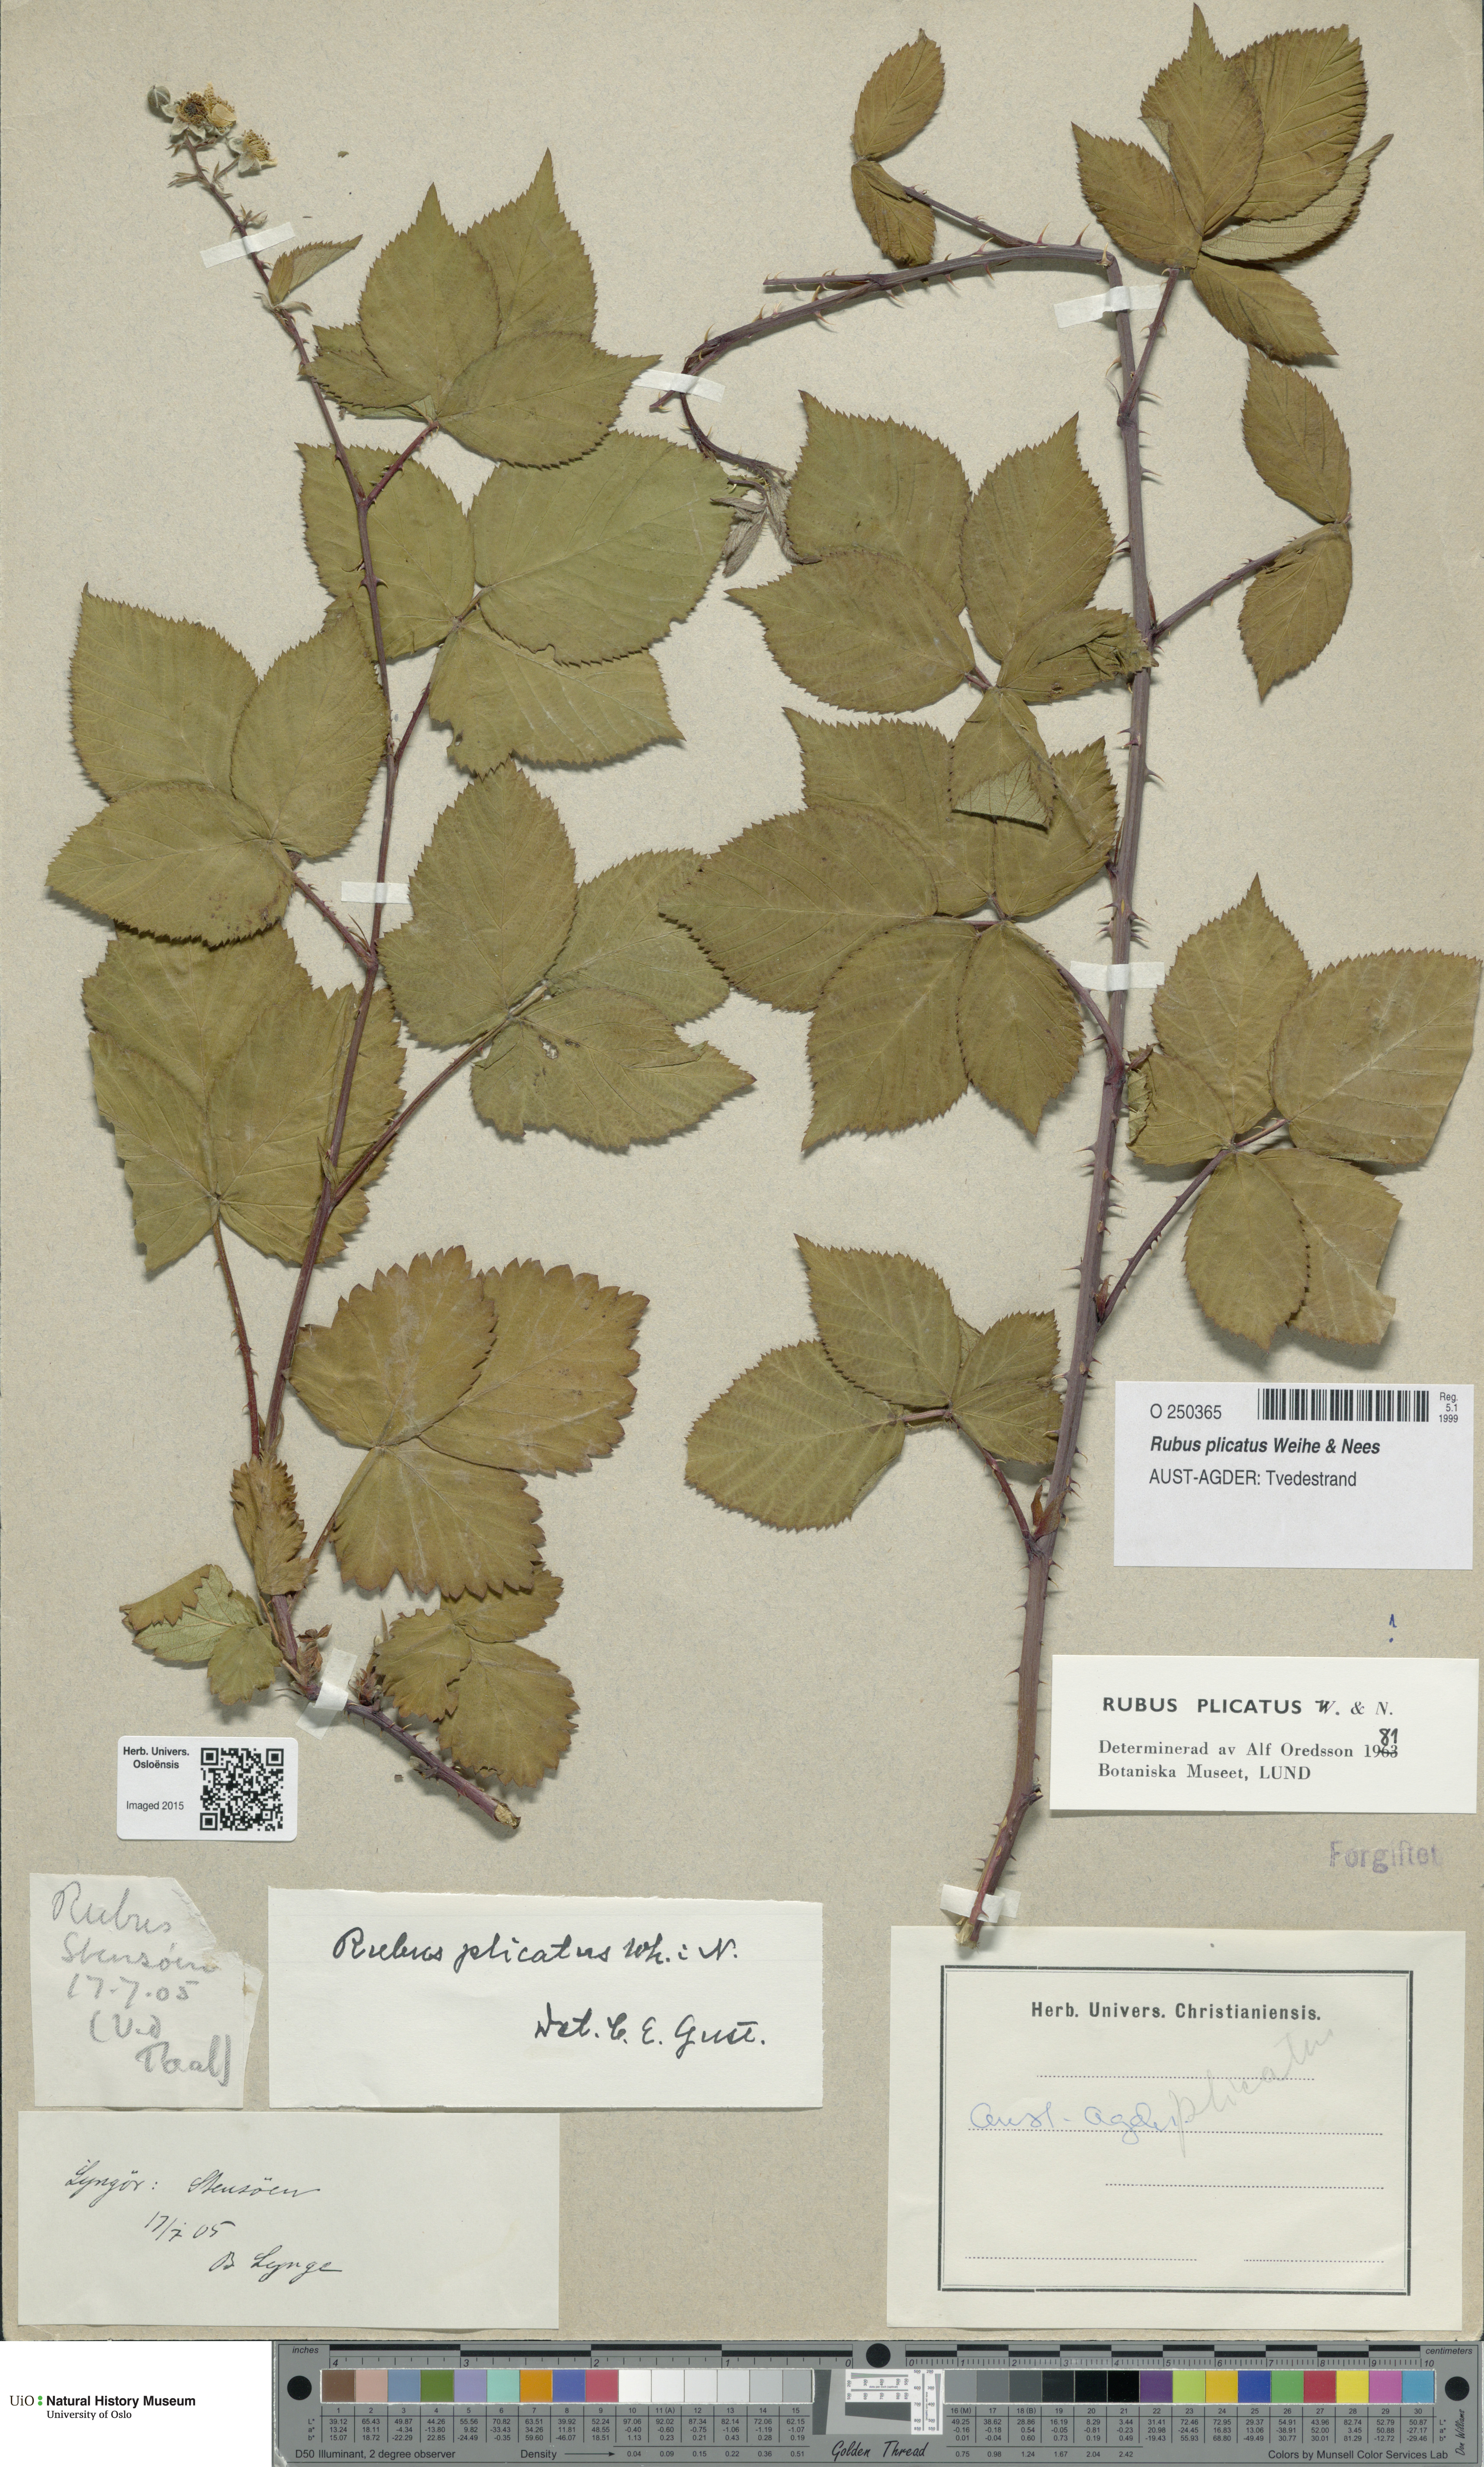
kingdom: Plantae
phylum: Tracheophyta
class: Magnoliopsida
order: Rosales
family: Rosaceae
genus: Rubus
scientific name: Rubus fruticosus
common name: Blackberry, bramble
